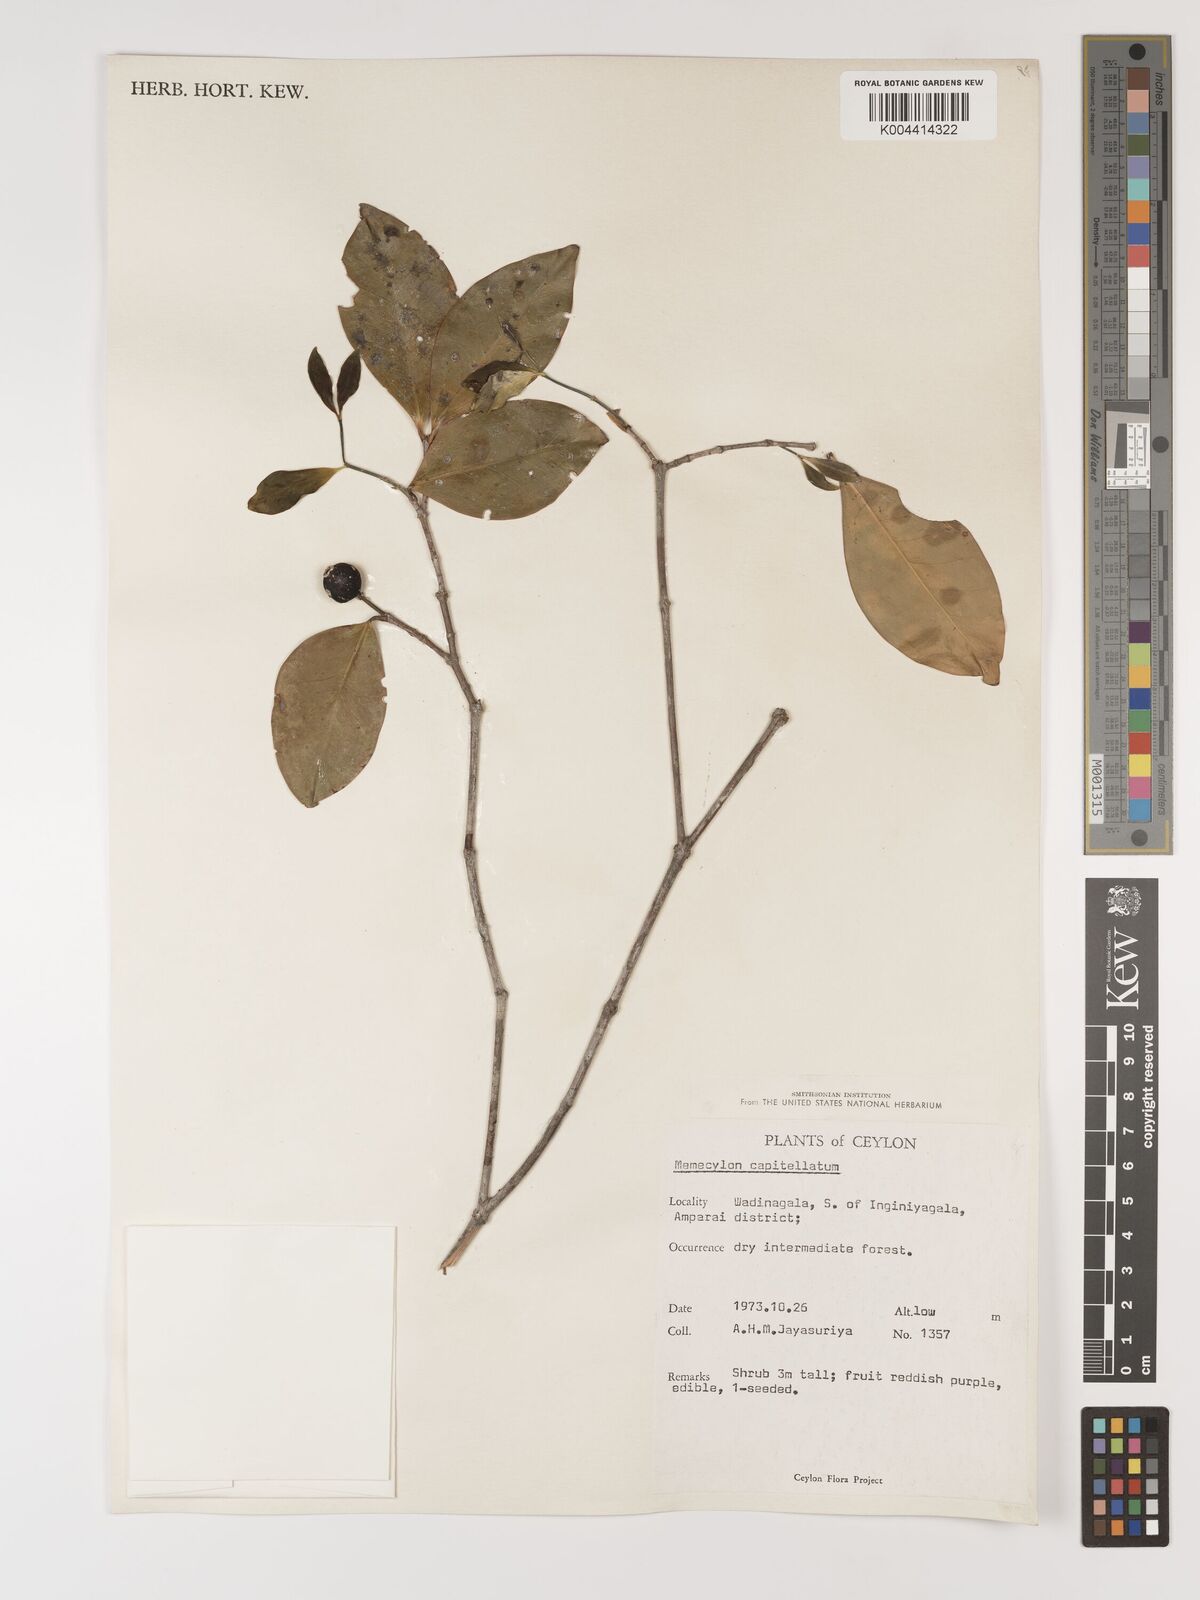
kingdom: Plantae
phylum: Tracheophyta
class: Magnoliopsida
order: Myrtales
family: Melastomataceae
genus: Memecylon
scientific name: Memecylon capitellatum
